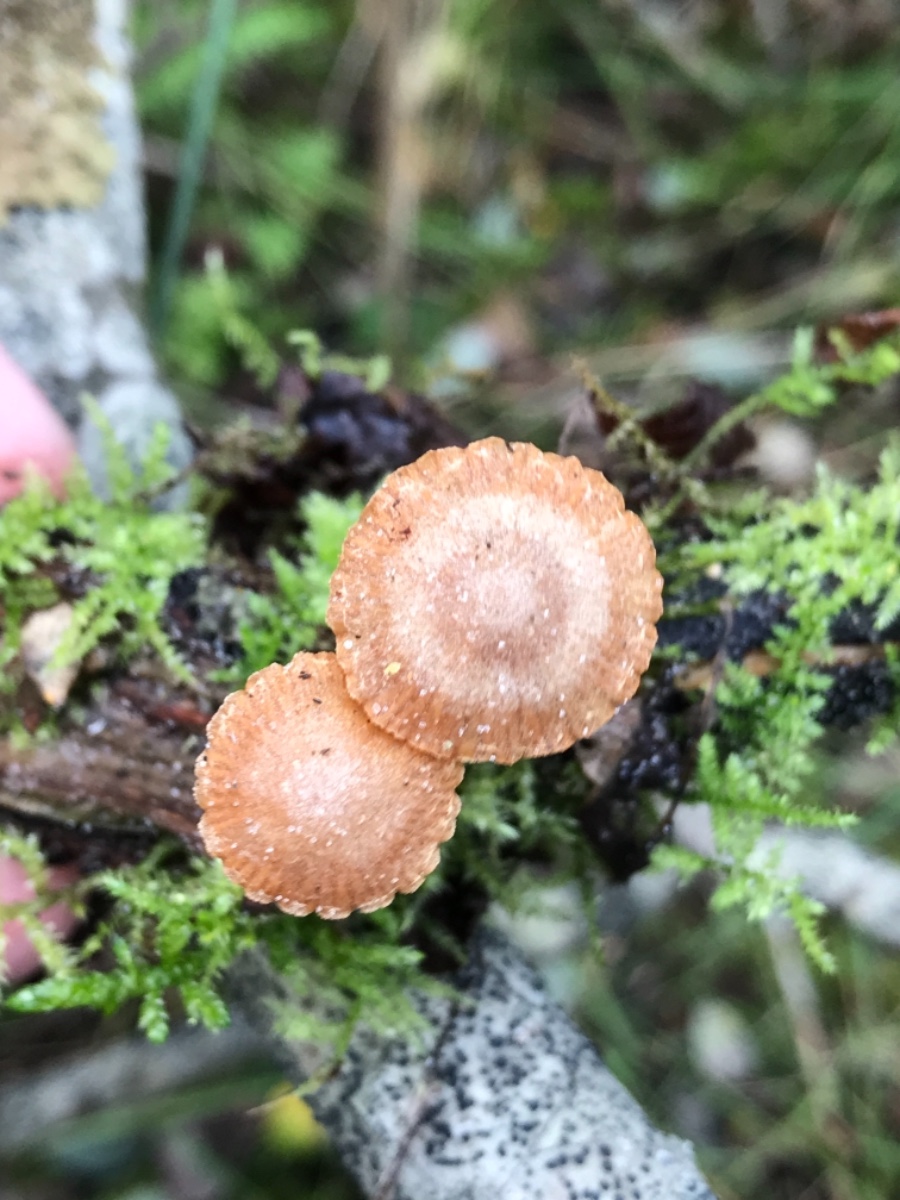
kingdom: Fungi
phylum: Basidiomycota
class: Agaricomycetes
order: Agaricales
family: Tubariaceae
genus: Tubaria
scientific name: Tubaria conspersa
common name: bleg fnughat
